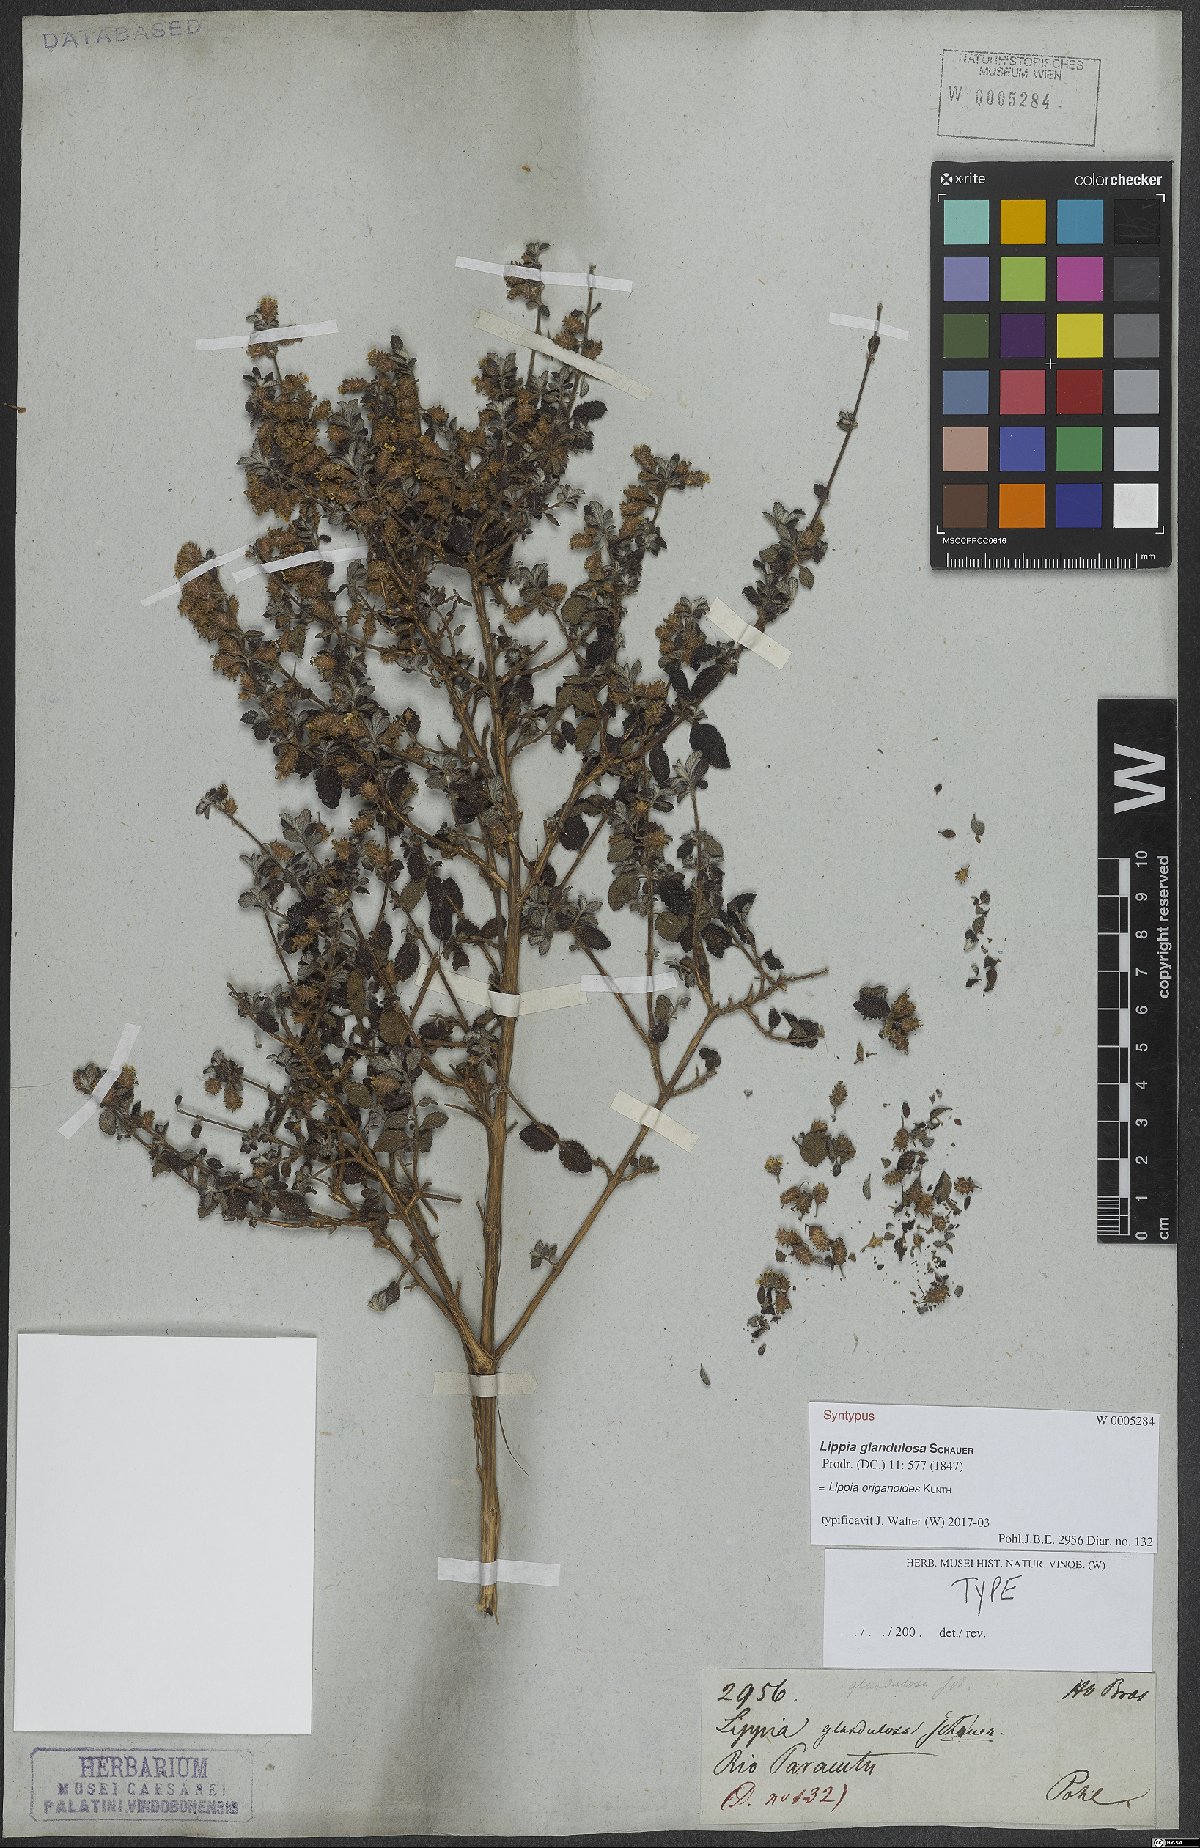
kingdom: Plantae
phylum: Tracheophyta
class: Magnoliopsida
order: Lamiales
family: Verbenaceae
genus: Lippia
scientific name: Lippia origanoides
